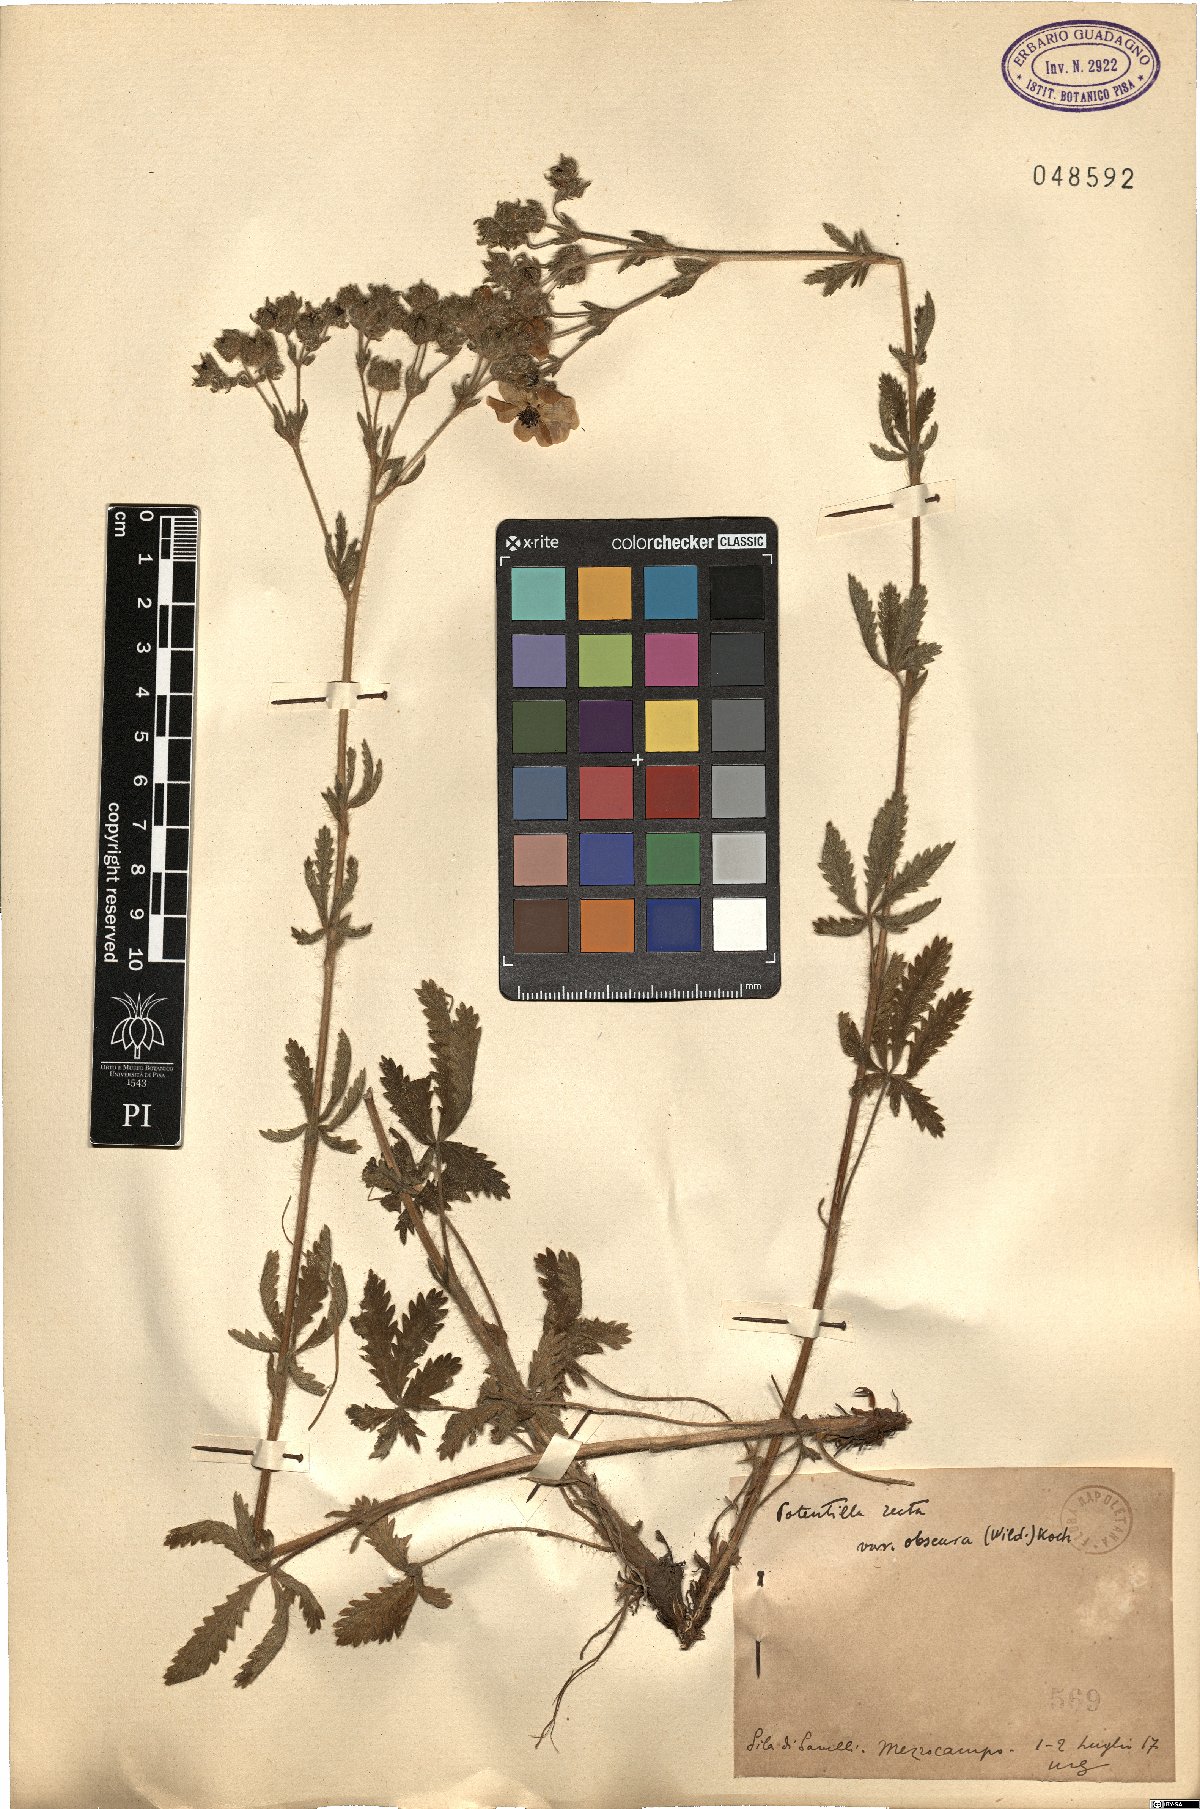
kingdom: Plantae
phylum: Tracheophyta
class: Magnoliopsida
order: Rosales
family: Rosaceae
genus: Potentilla
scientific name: Potentilla recta
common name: Sulphur cinquefoil
